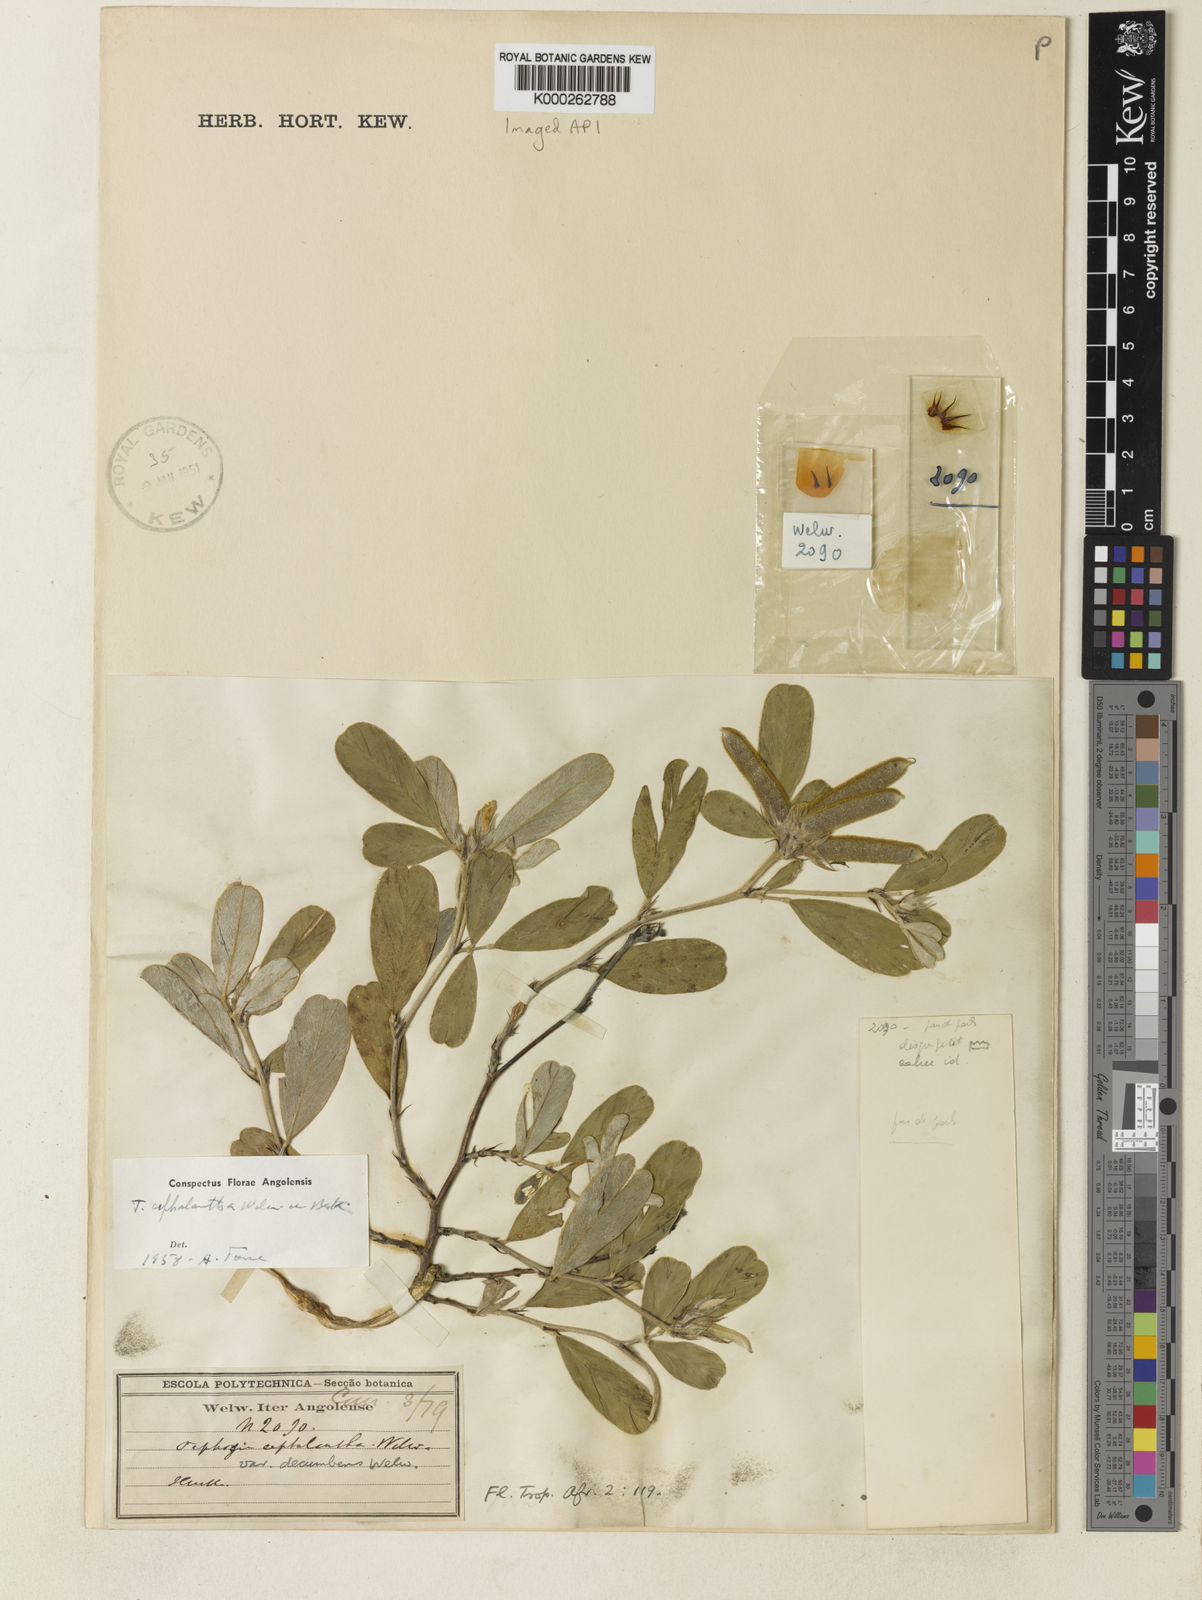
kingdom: Plantae
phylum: Tracheophyta
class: Magnoliopsida
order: Fabales
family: Fabaceae
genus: Tephrosia
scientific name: Tephrosia cephalantha
